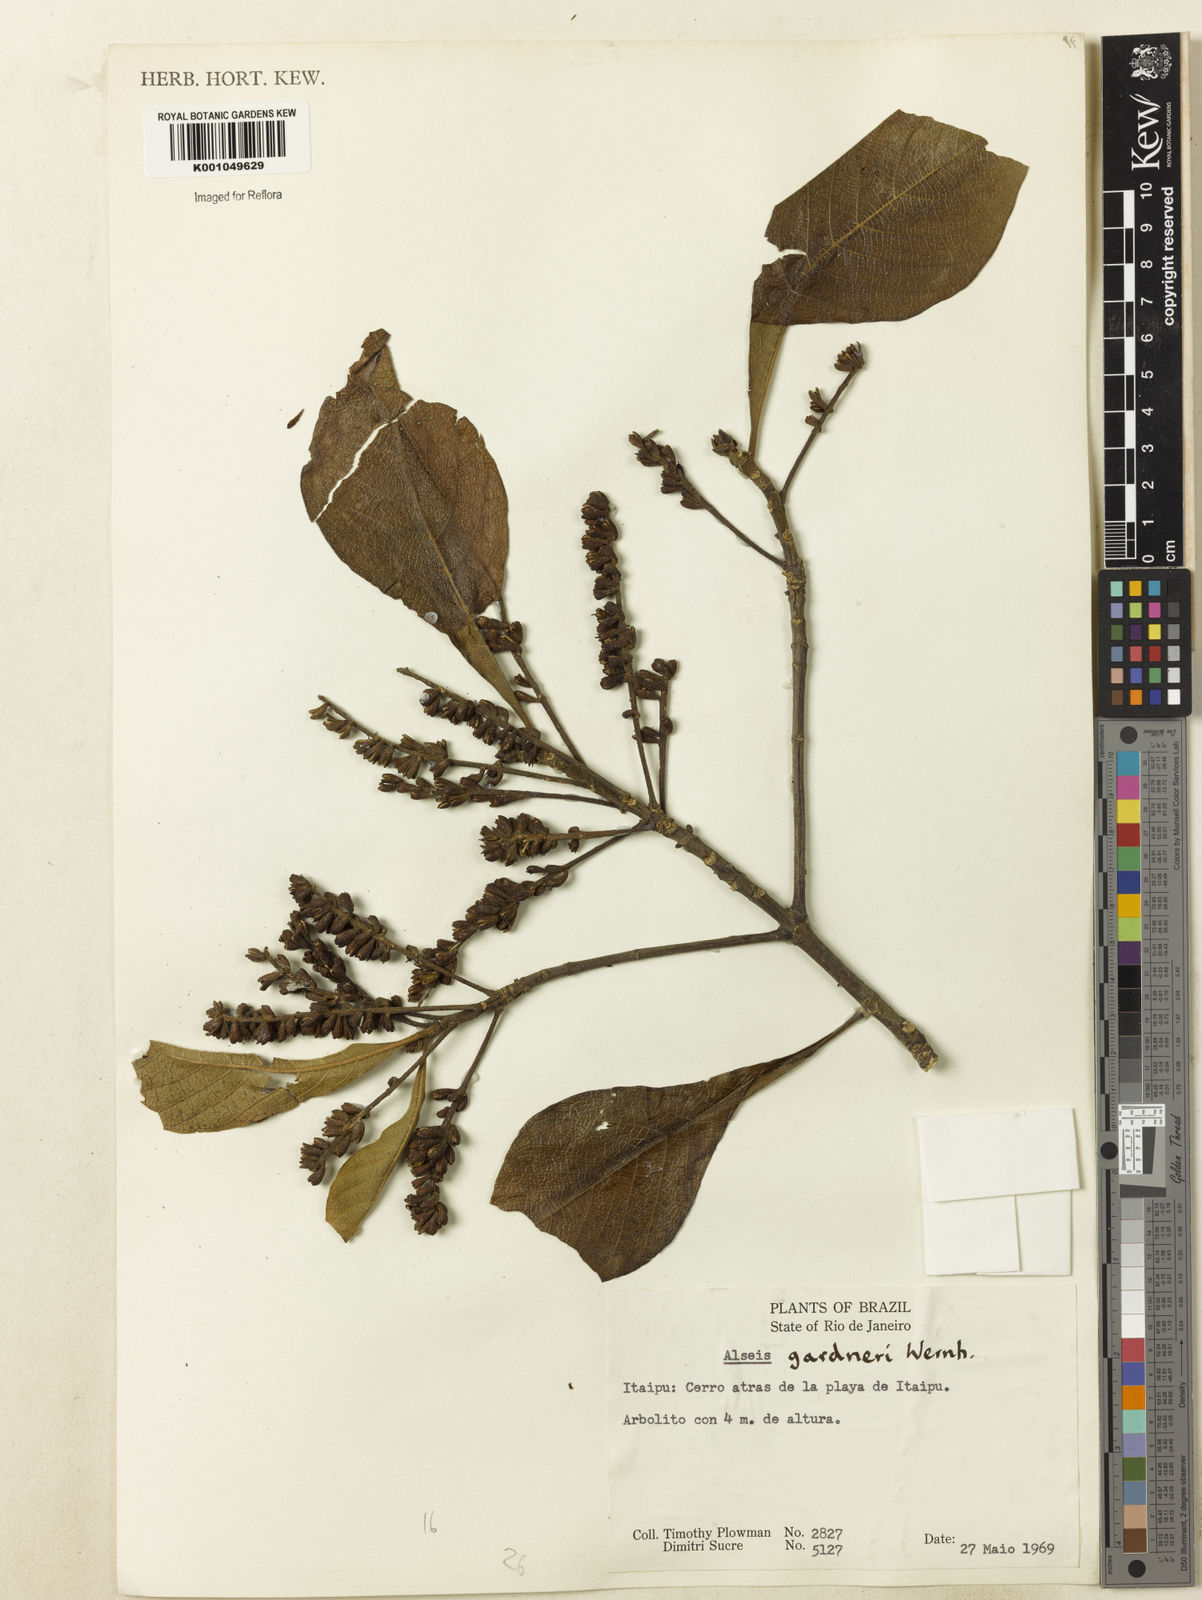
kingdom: Plantae
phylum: Tracheophyta
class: Magnoliopsida
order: Gentianales
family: Rubiaceae
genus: Alseis
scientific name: Alseis gardneri
